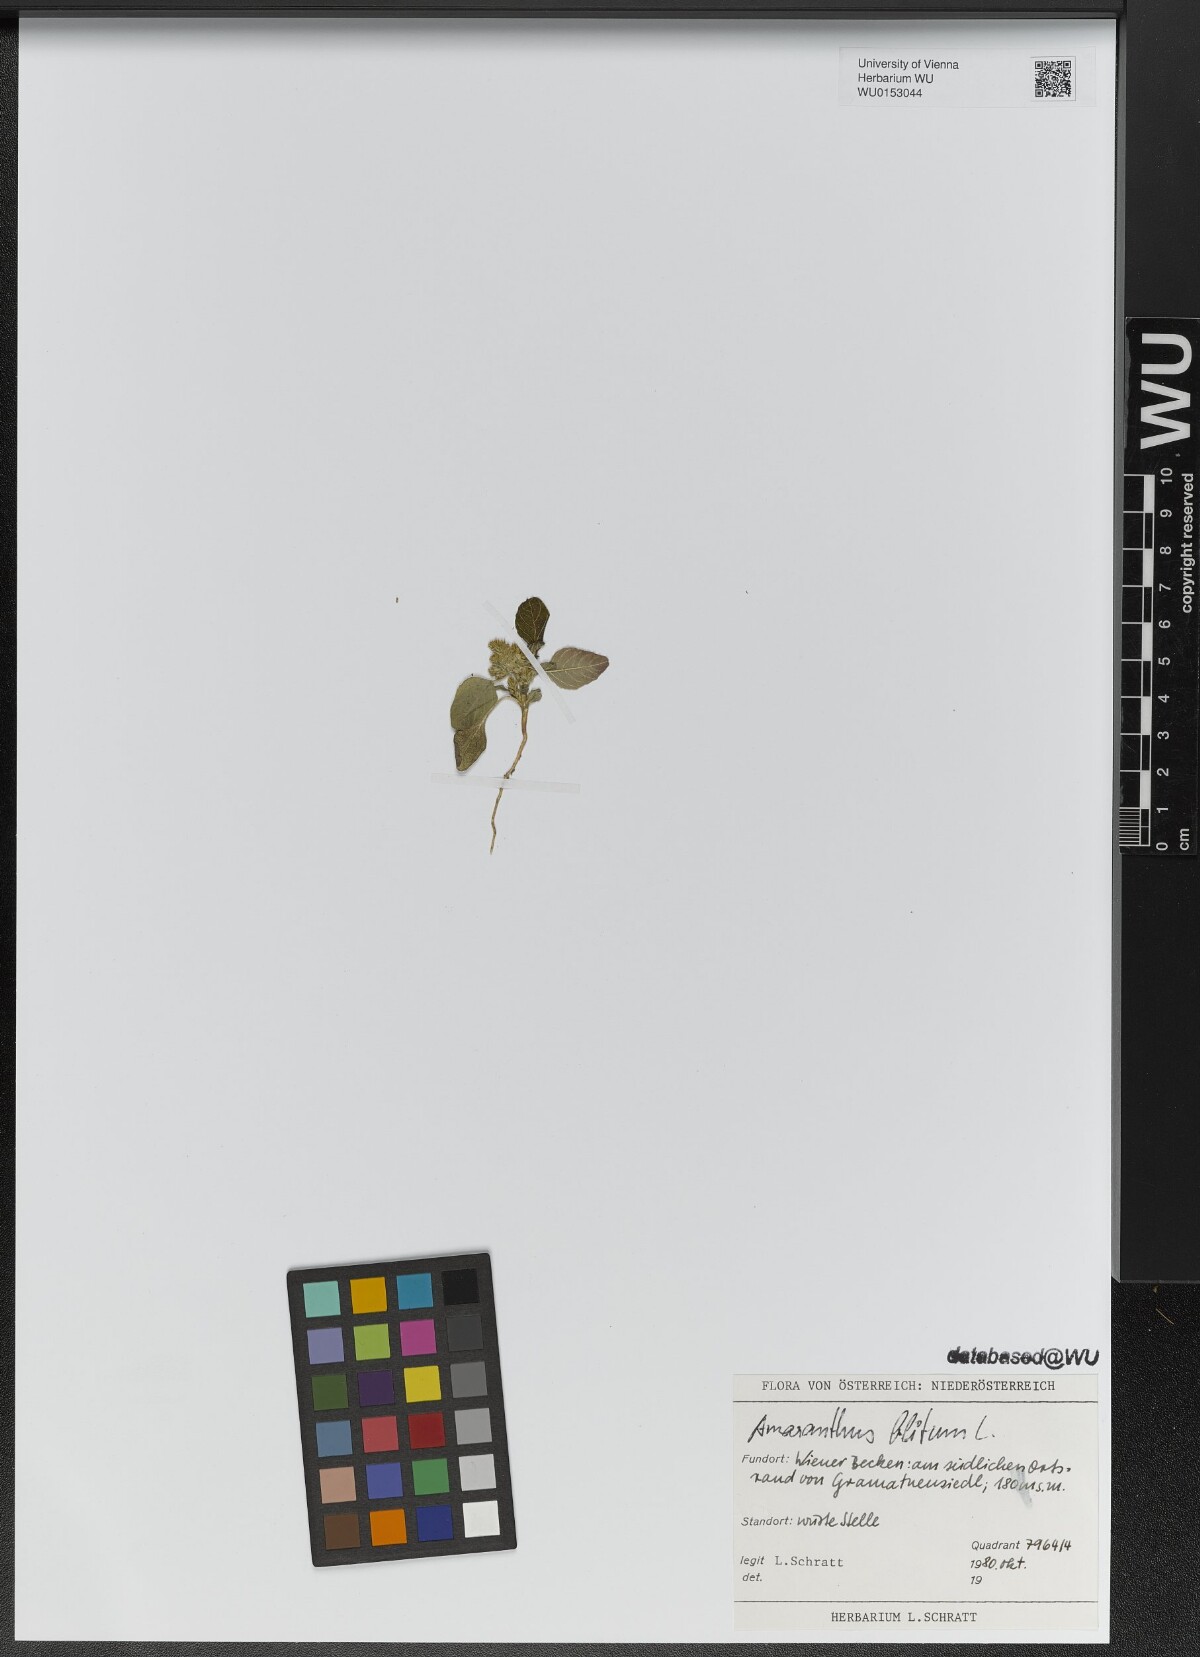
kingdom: Plantae
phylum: Tracheophyta
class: Magnoliopsida
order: Caryophyllales
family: Amaranthaceae
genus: Amaranthus
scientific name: Amaranthus blitum
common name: Purple amaranth
